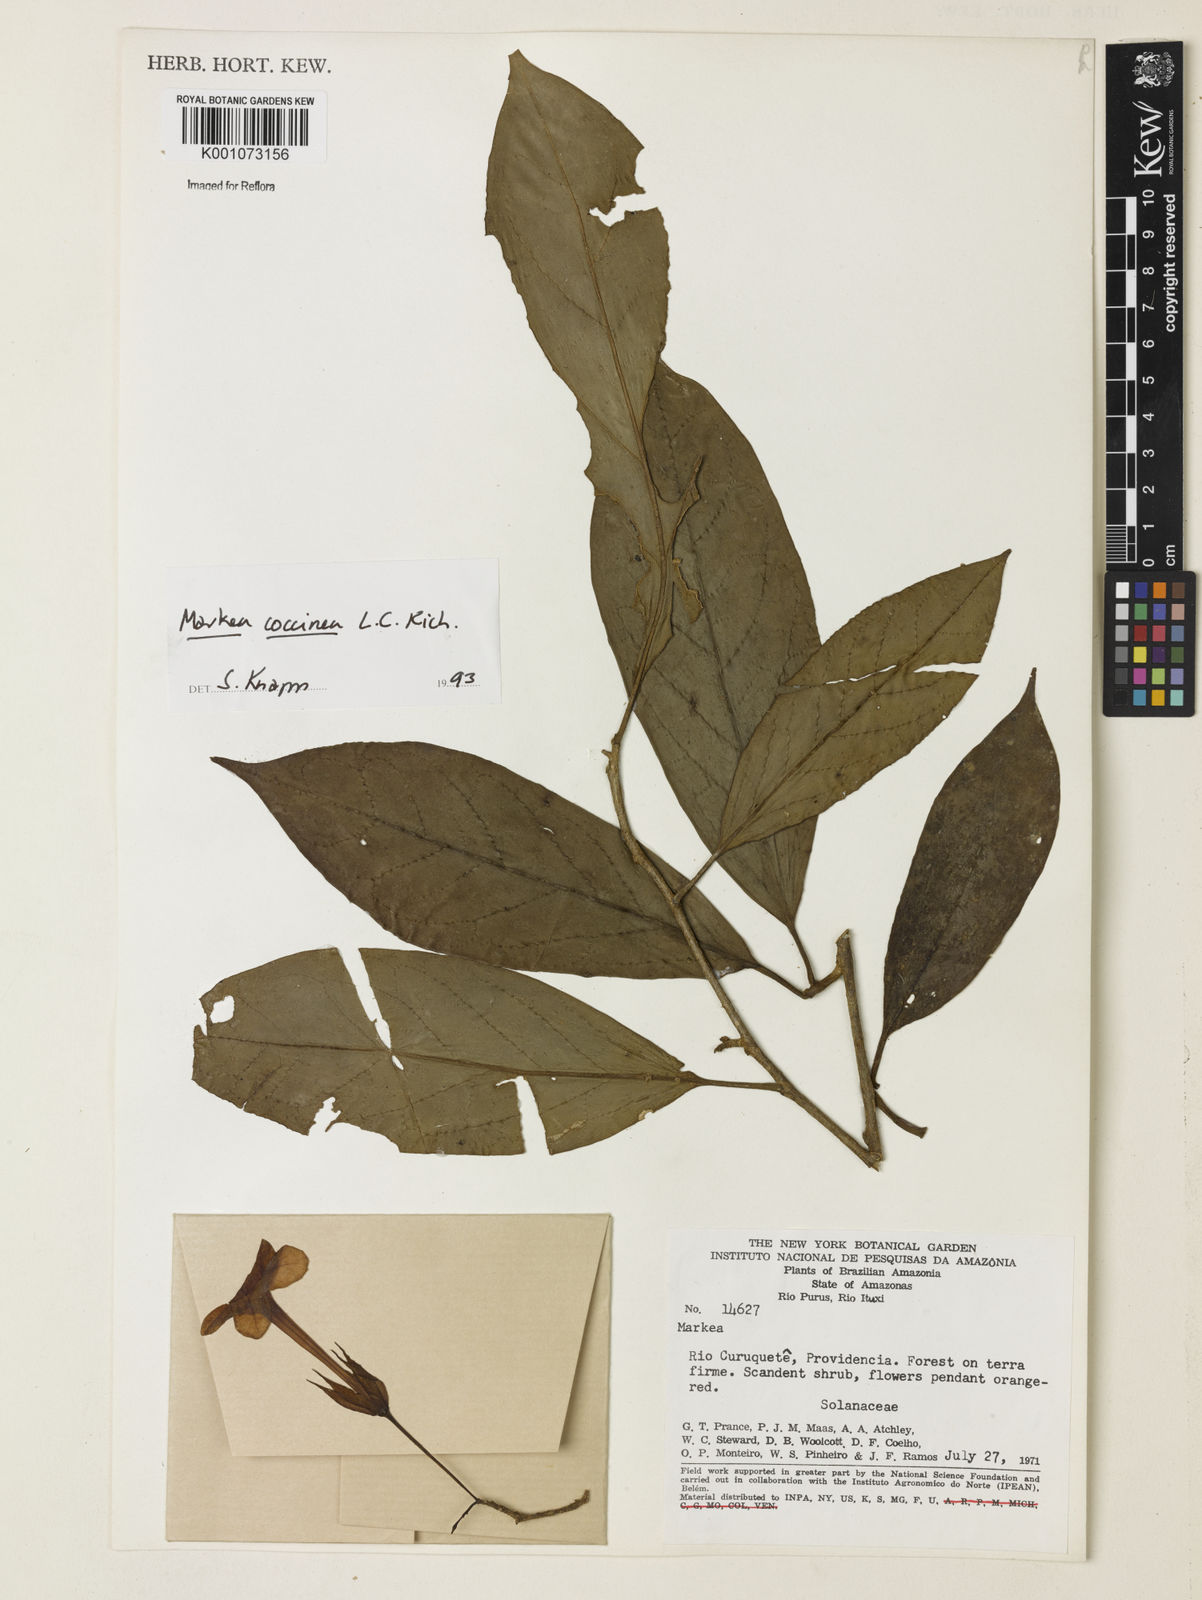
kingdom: Plantae
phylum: Tracheophyta
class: Magnoliopsida
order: Solanales
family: Solanaceae
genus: Markea
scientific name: Markea coccinea
